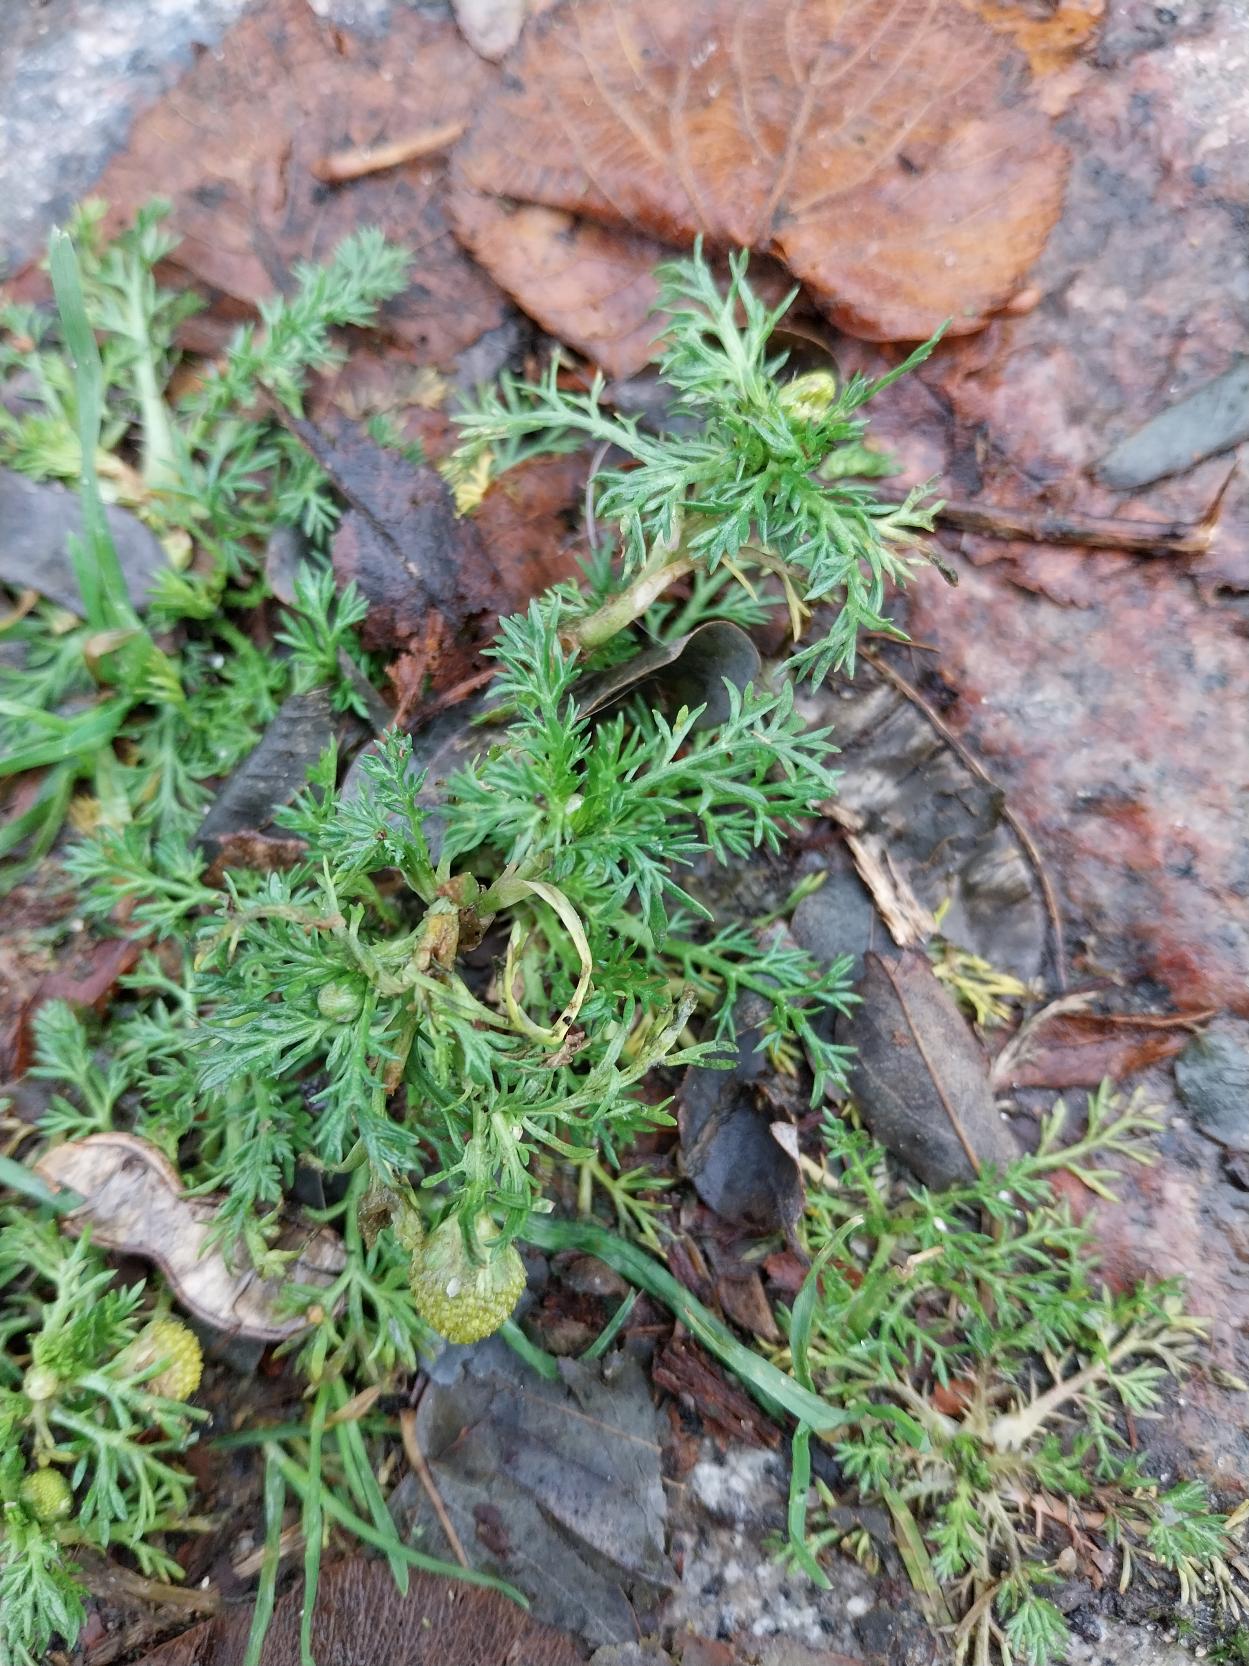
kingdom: Plantae
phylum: Tracheophyta
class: Magnoliopsida
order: Asterales
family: Asteraceae
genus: Matricaria
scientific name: Matricaria discoidea
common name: Skive-kamille
